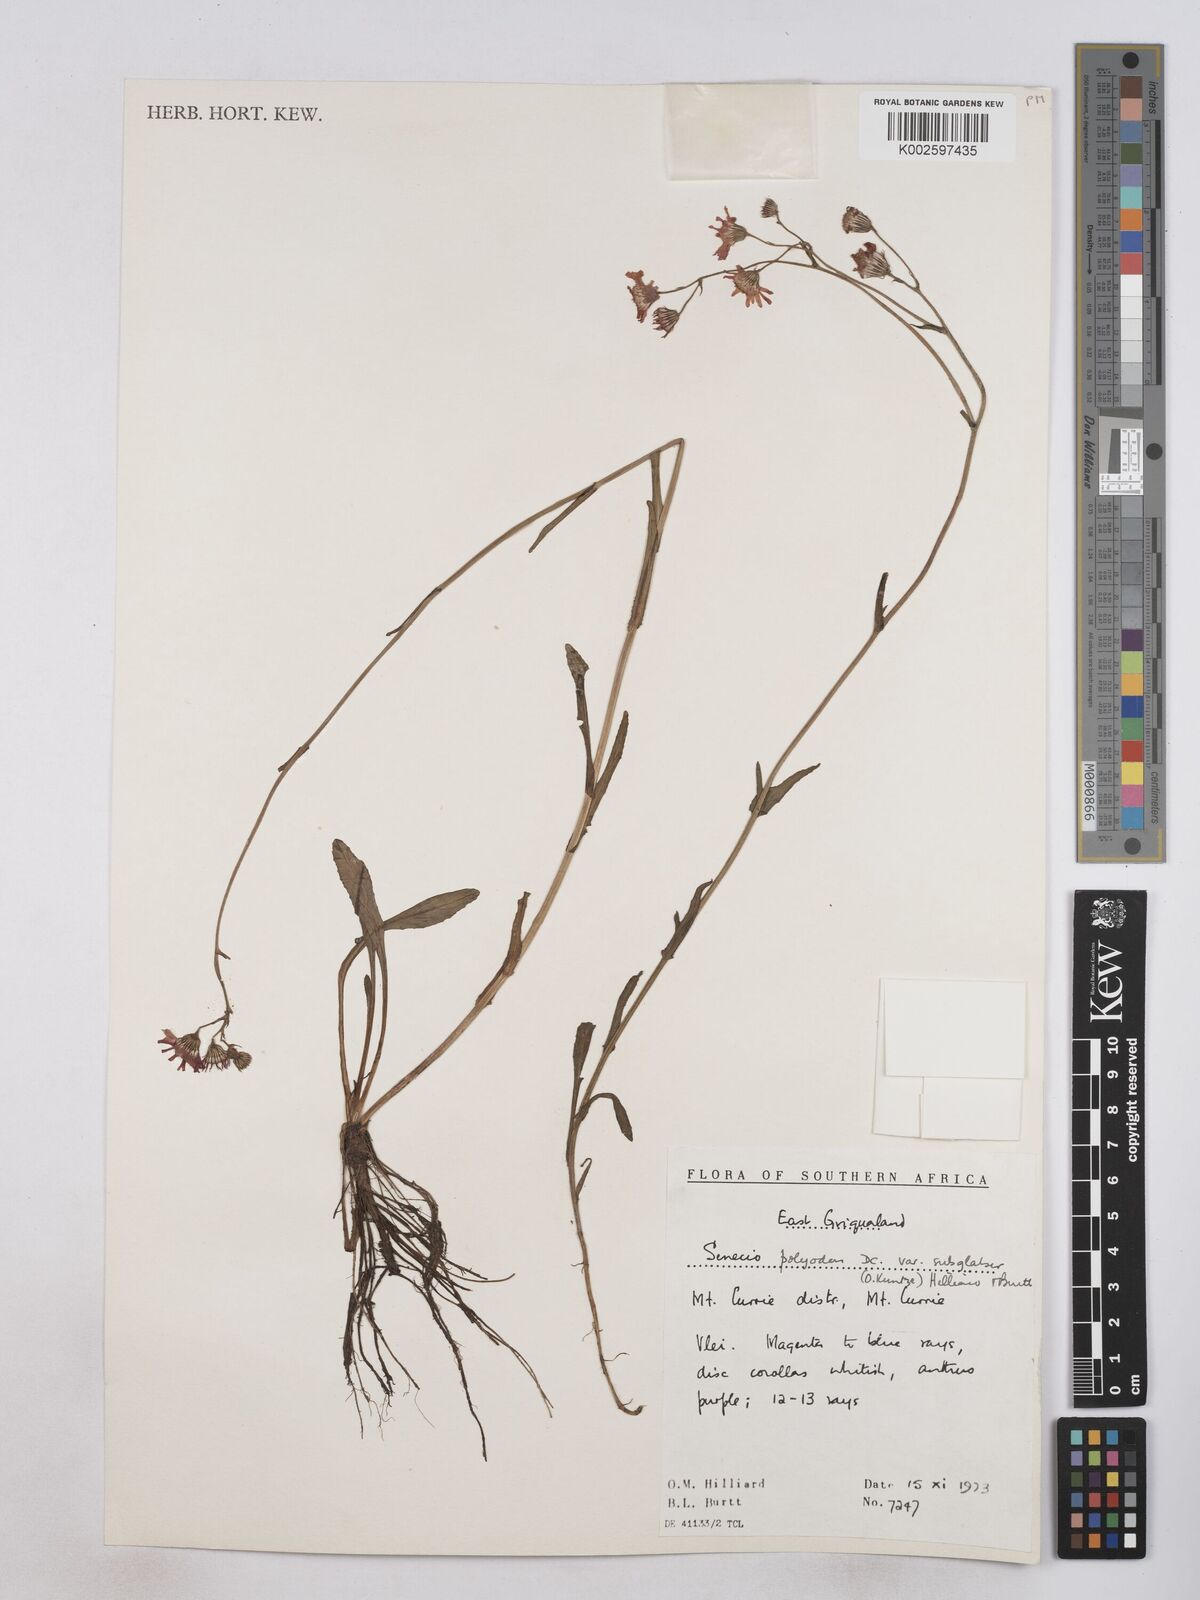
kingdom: Plantae
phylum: Tracheophyta
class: Magnoliopsida
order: Asterales
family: Asteraceae
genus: Senecio
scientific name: Senecio polyodon
